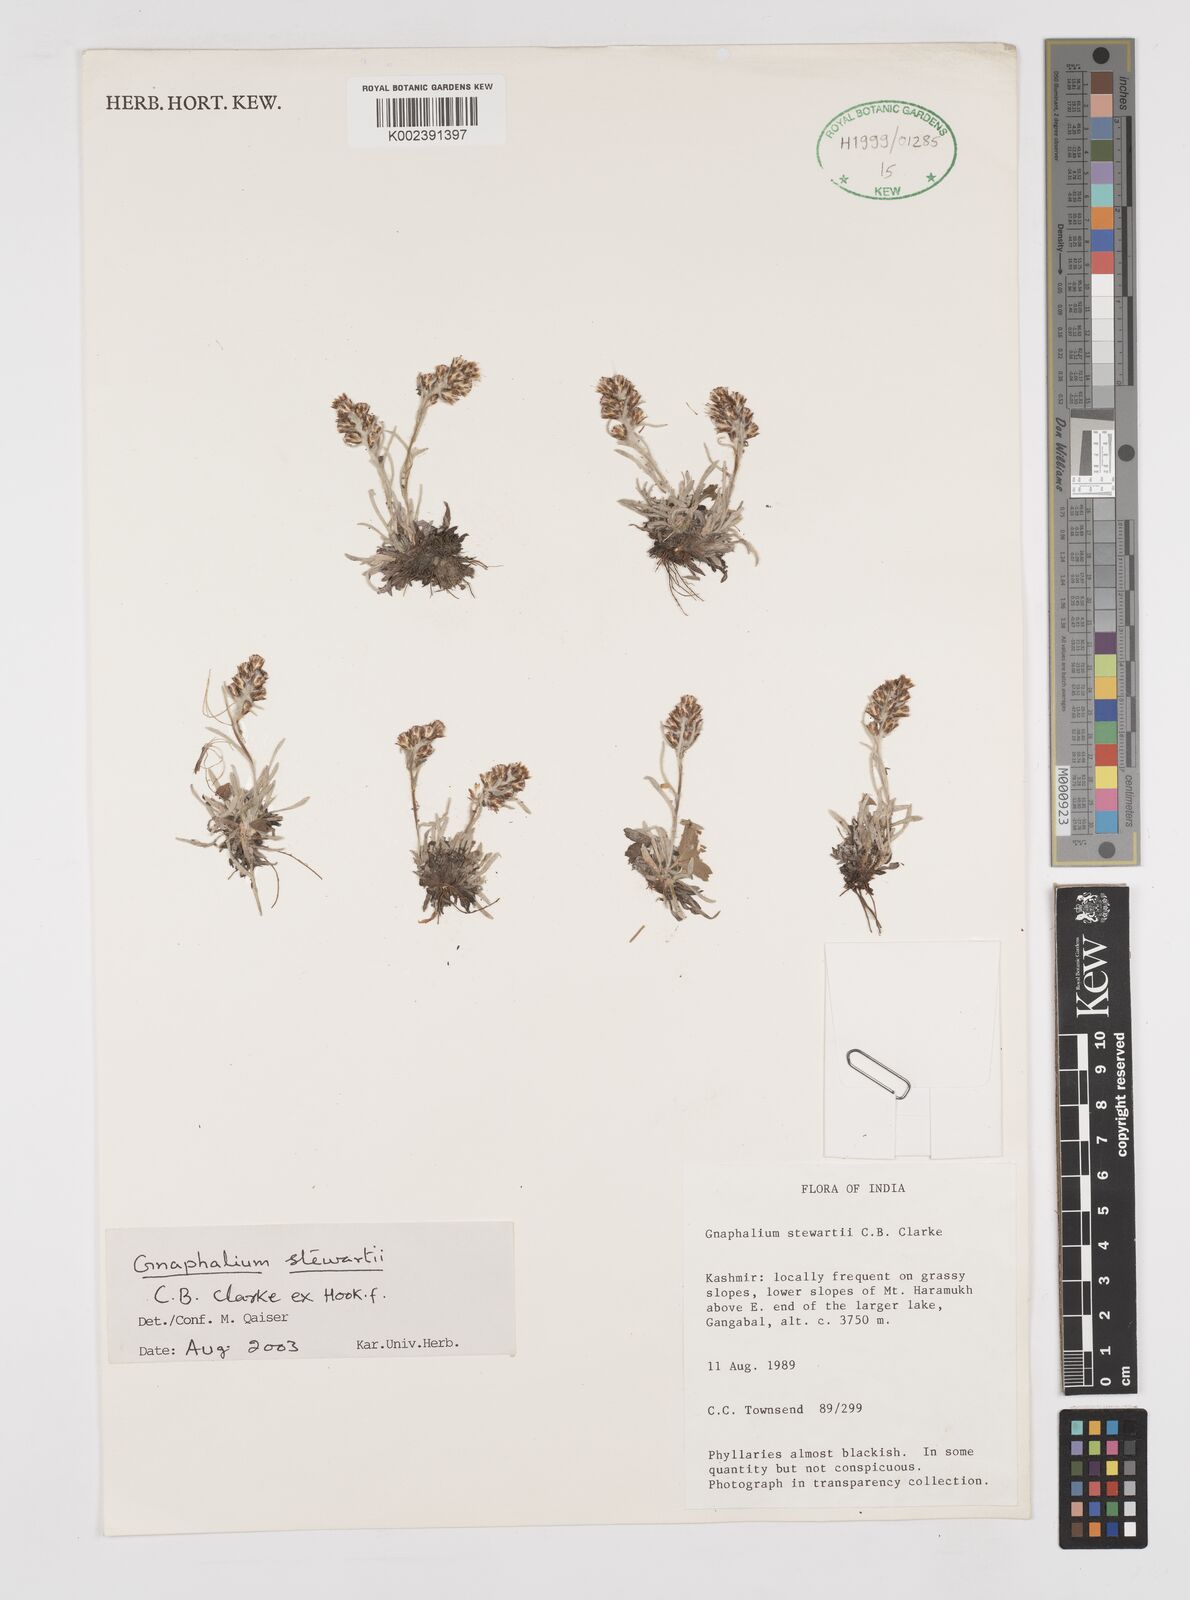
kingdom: Plantae
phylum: Tracheophyta
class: Magnoliopsida
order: Asterales
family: Asteraceae
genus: Gnaphalium
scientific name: Gnaphalium stewartii
